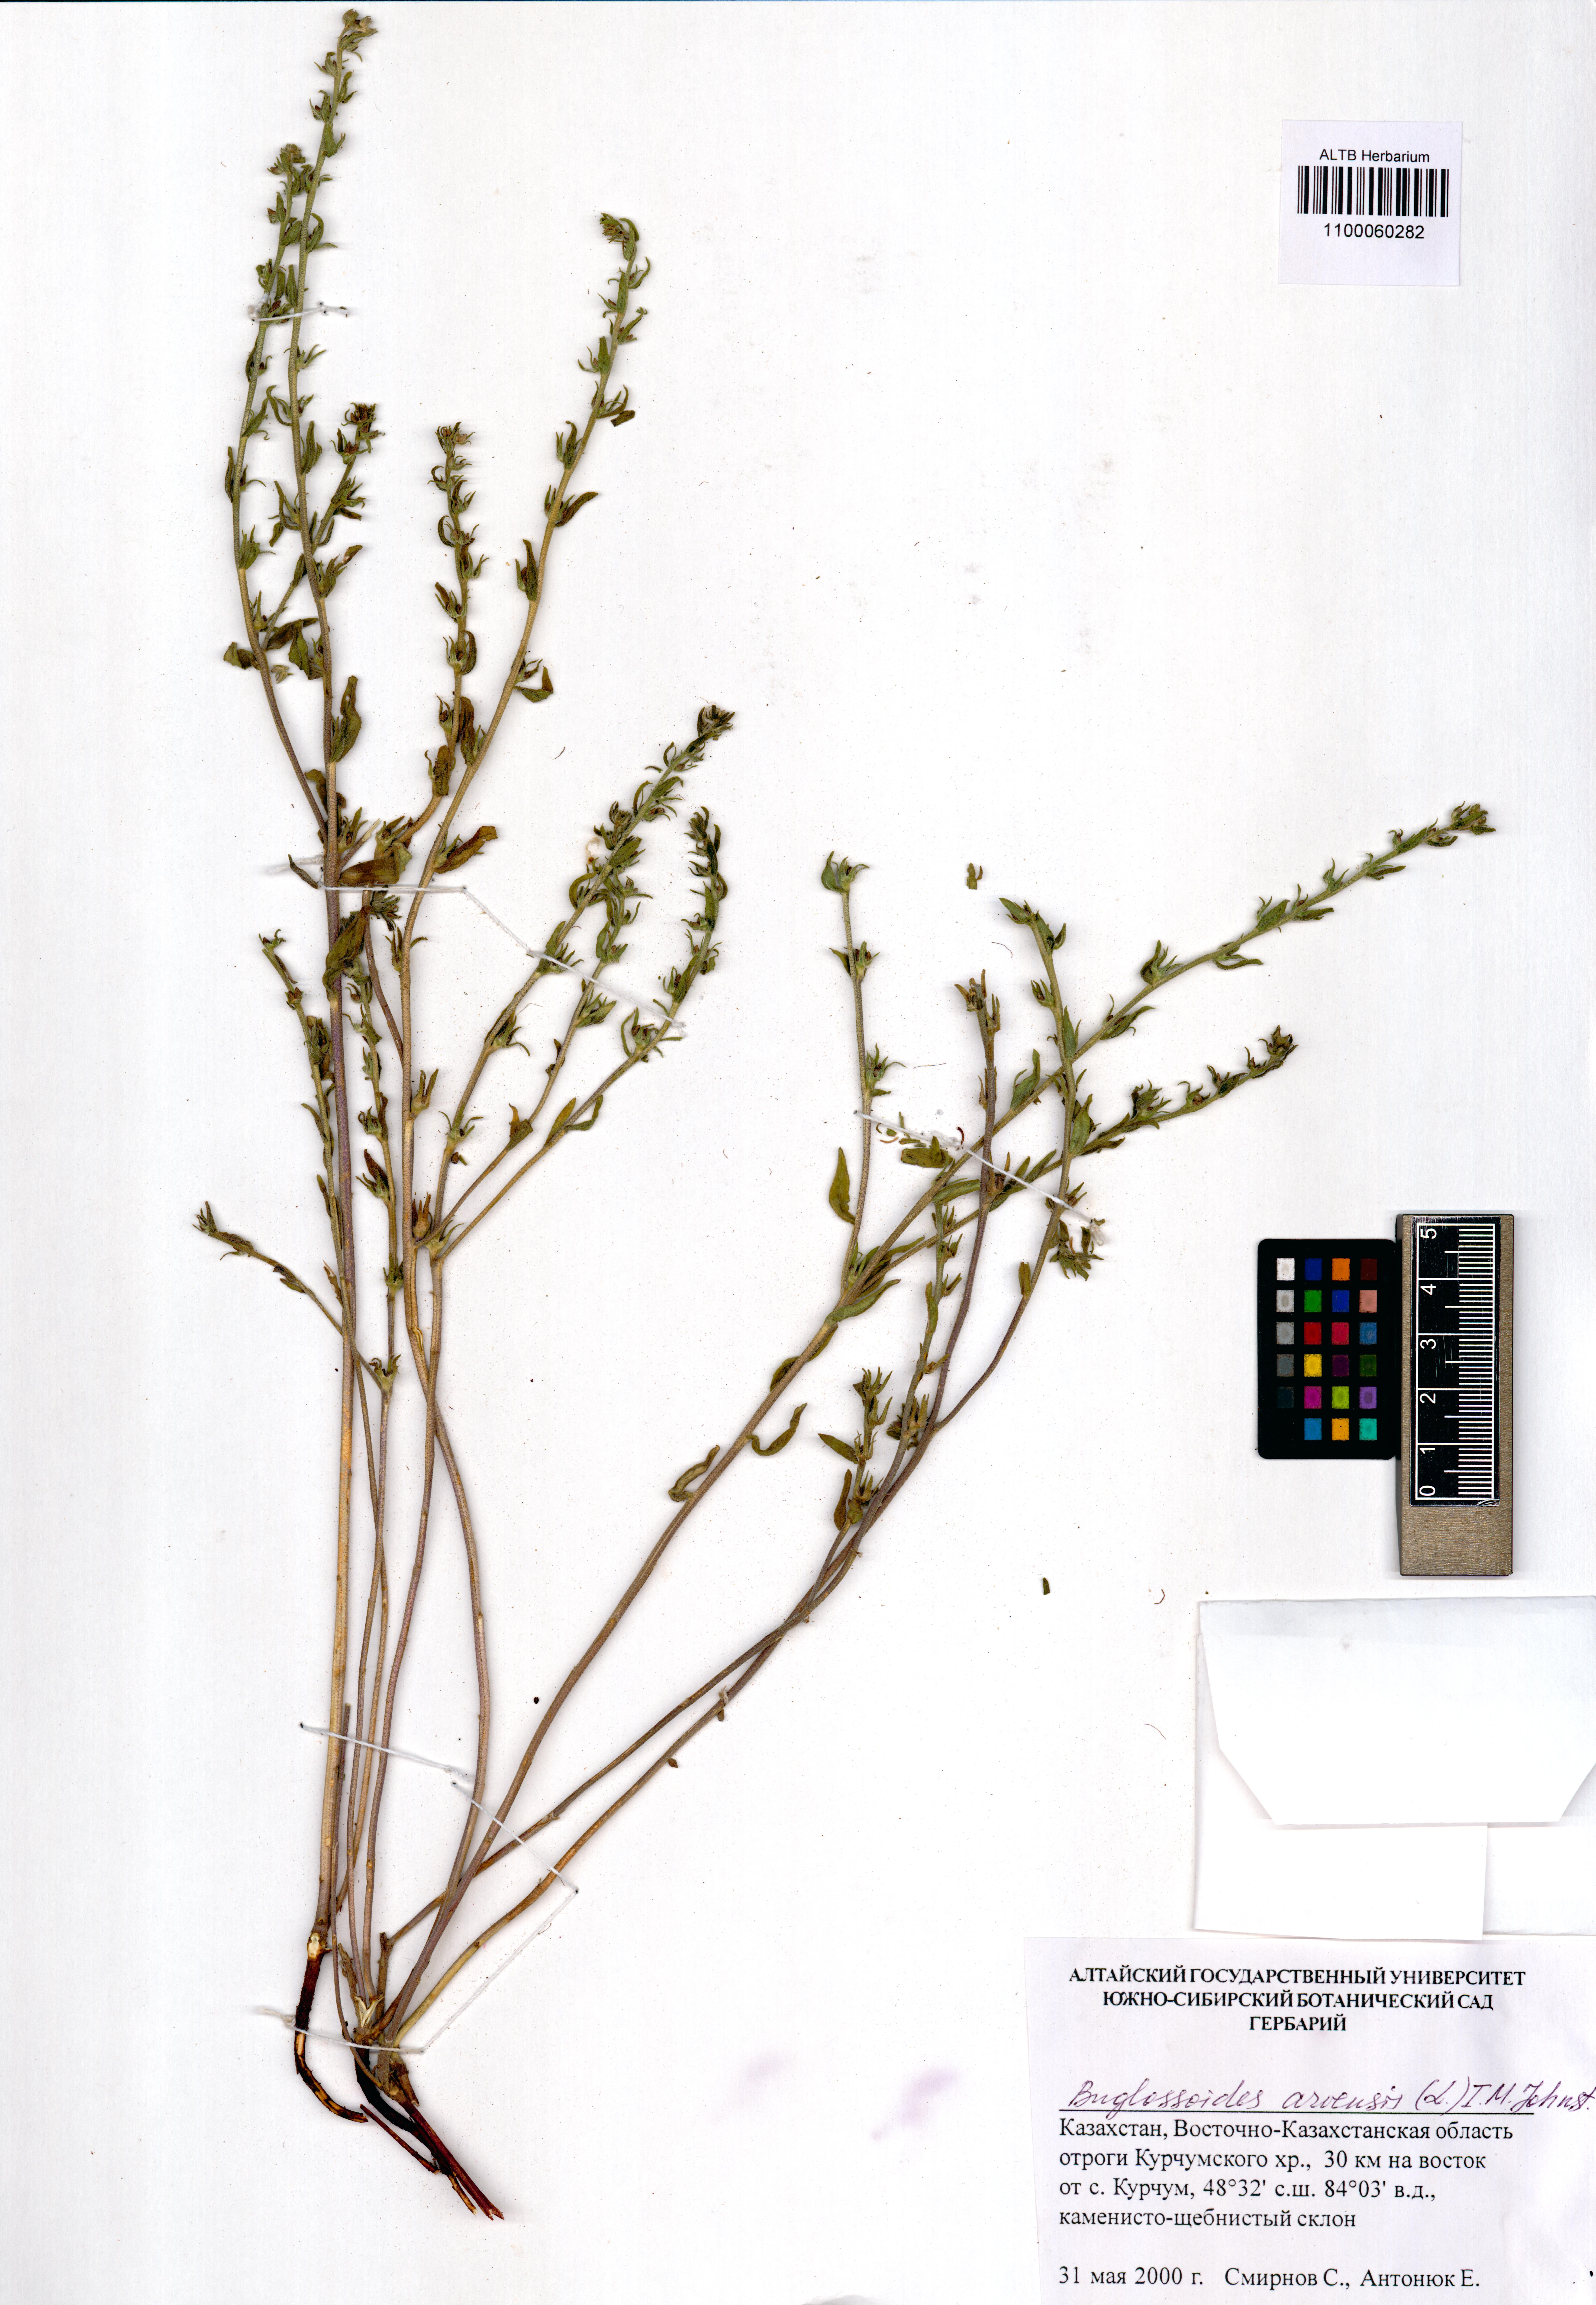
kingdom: Plantae
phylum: Tracheophyta
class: Magnoliopsida
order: Boraginales
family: Boraginaceae
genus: Buglossoides
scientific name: Buglossoides arvensis
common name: Corn gromwell
